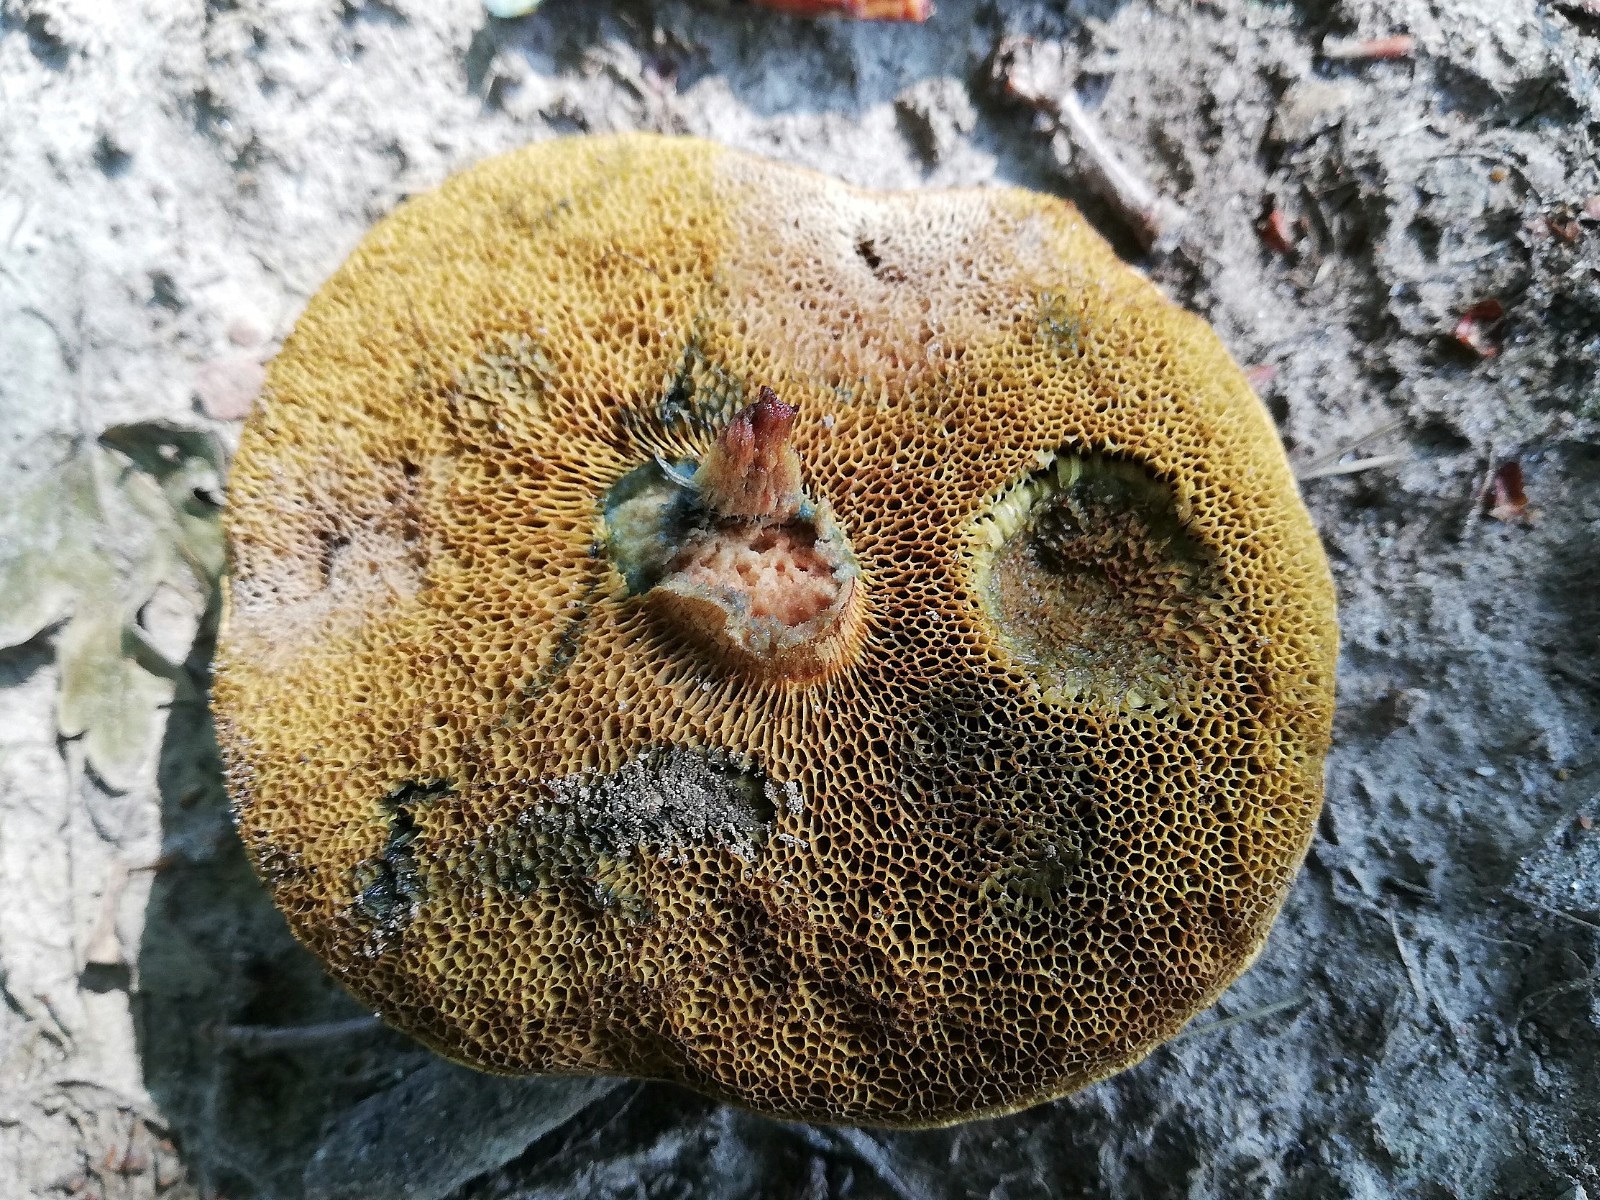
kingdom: Fungi
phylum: Basidiomycota
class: Agaricomycetes
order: Boletales
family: Boletaceae
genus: Xerocomellus
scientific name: Xerocomellus chrysenteron
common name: rødsprukken rørhat
